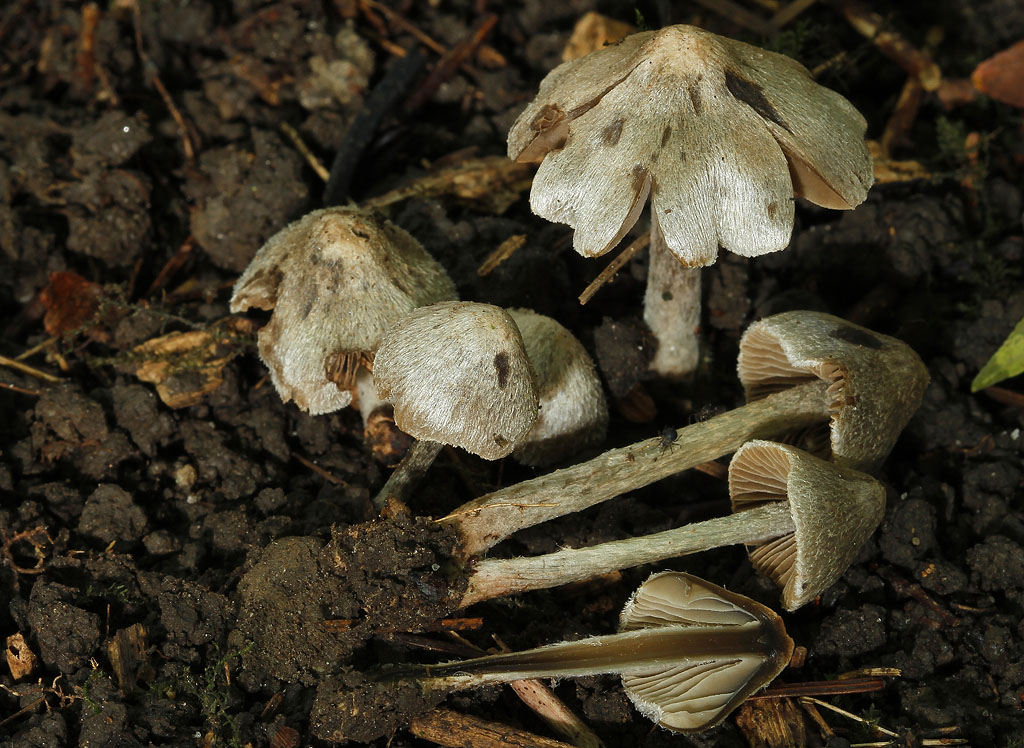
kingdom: Fungi
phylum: Basidiomycota
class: Agaricomycetes
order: Agaricales
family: Entolomataceae
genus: Entoloma
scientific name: Entoloma araneosum
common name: spindelvævs-rødblad
